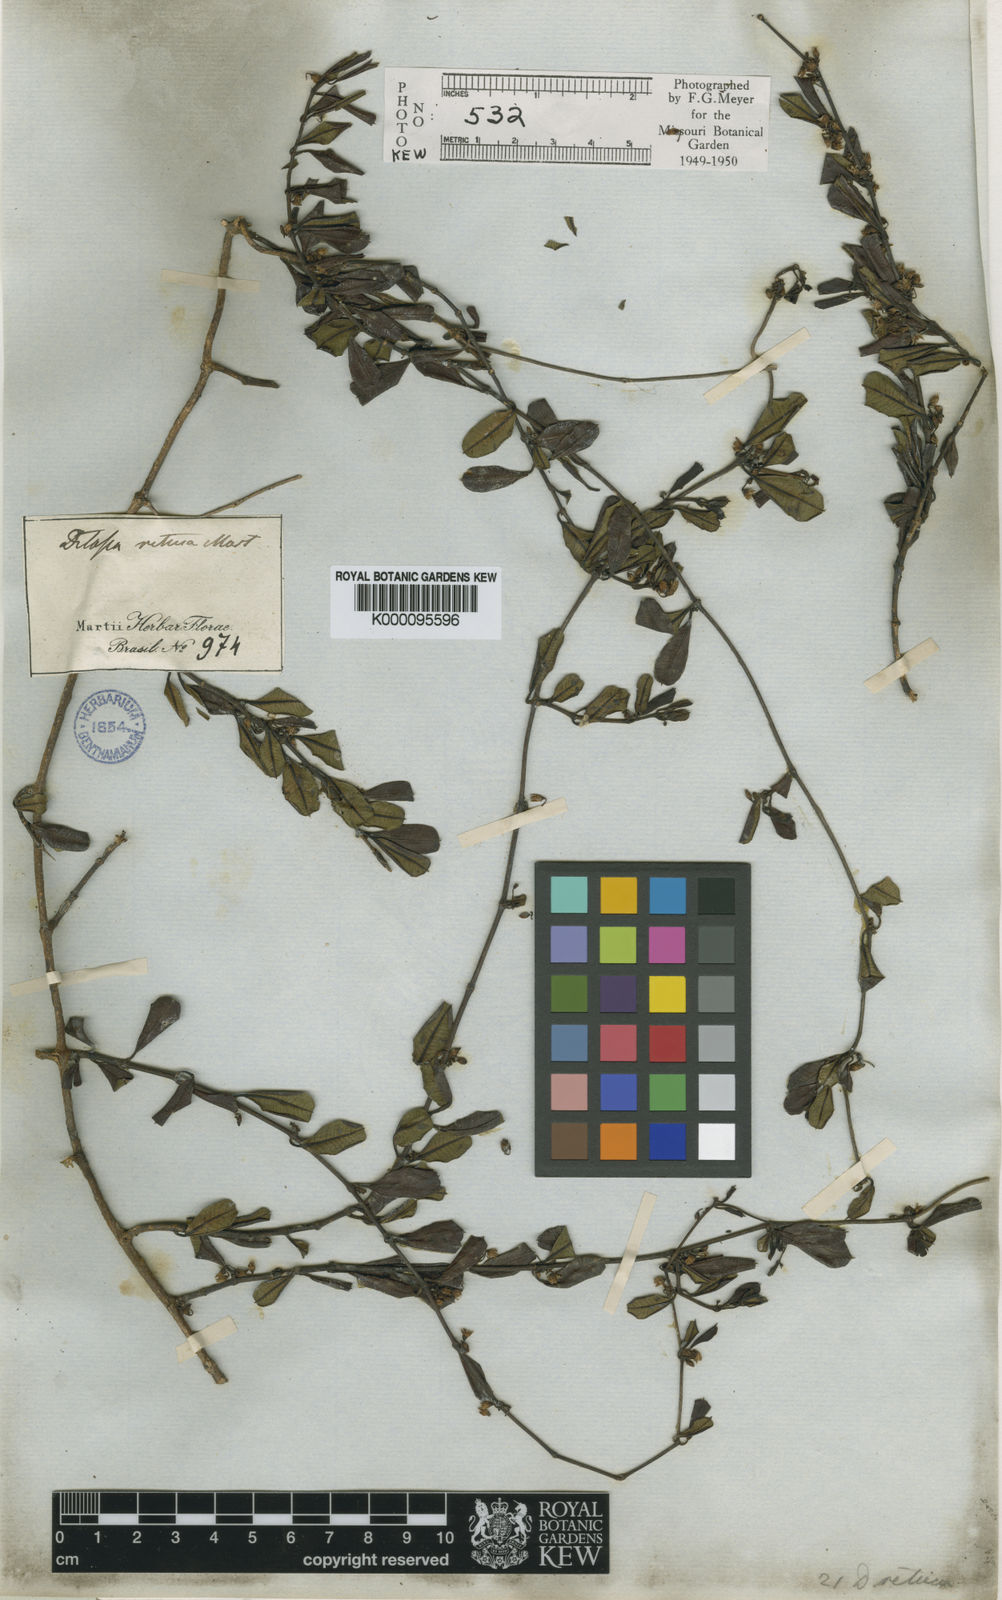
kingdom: Plantae
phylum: Tracheophyta
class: Magnoliopsida
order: Gentianales
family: Apocynaceae
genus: Ditassa
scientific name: Ditassa retusa
